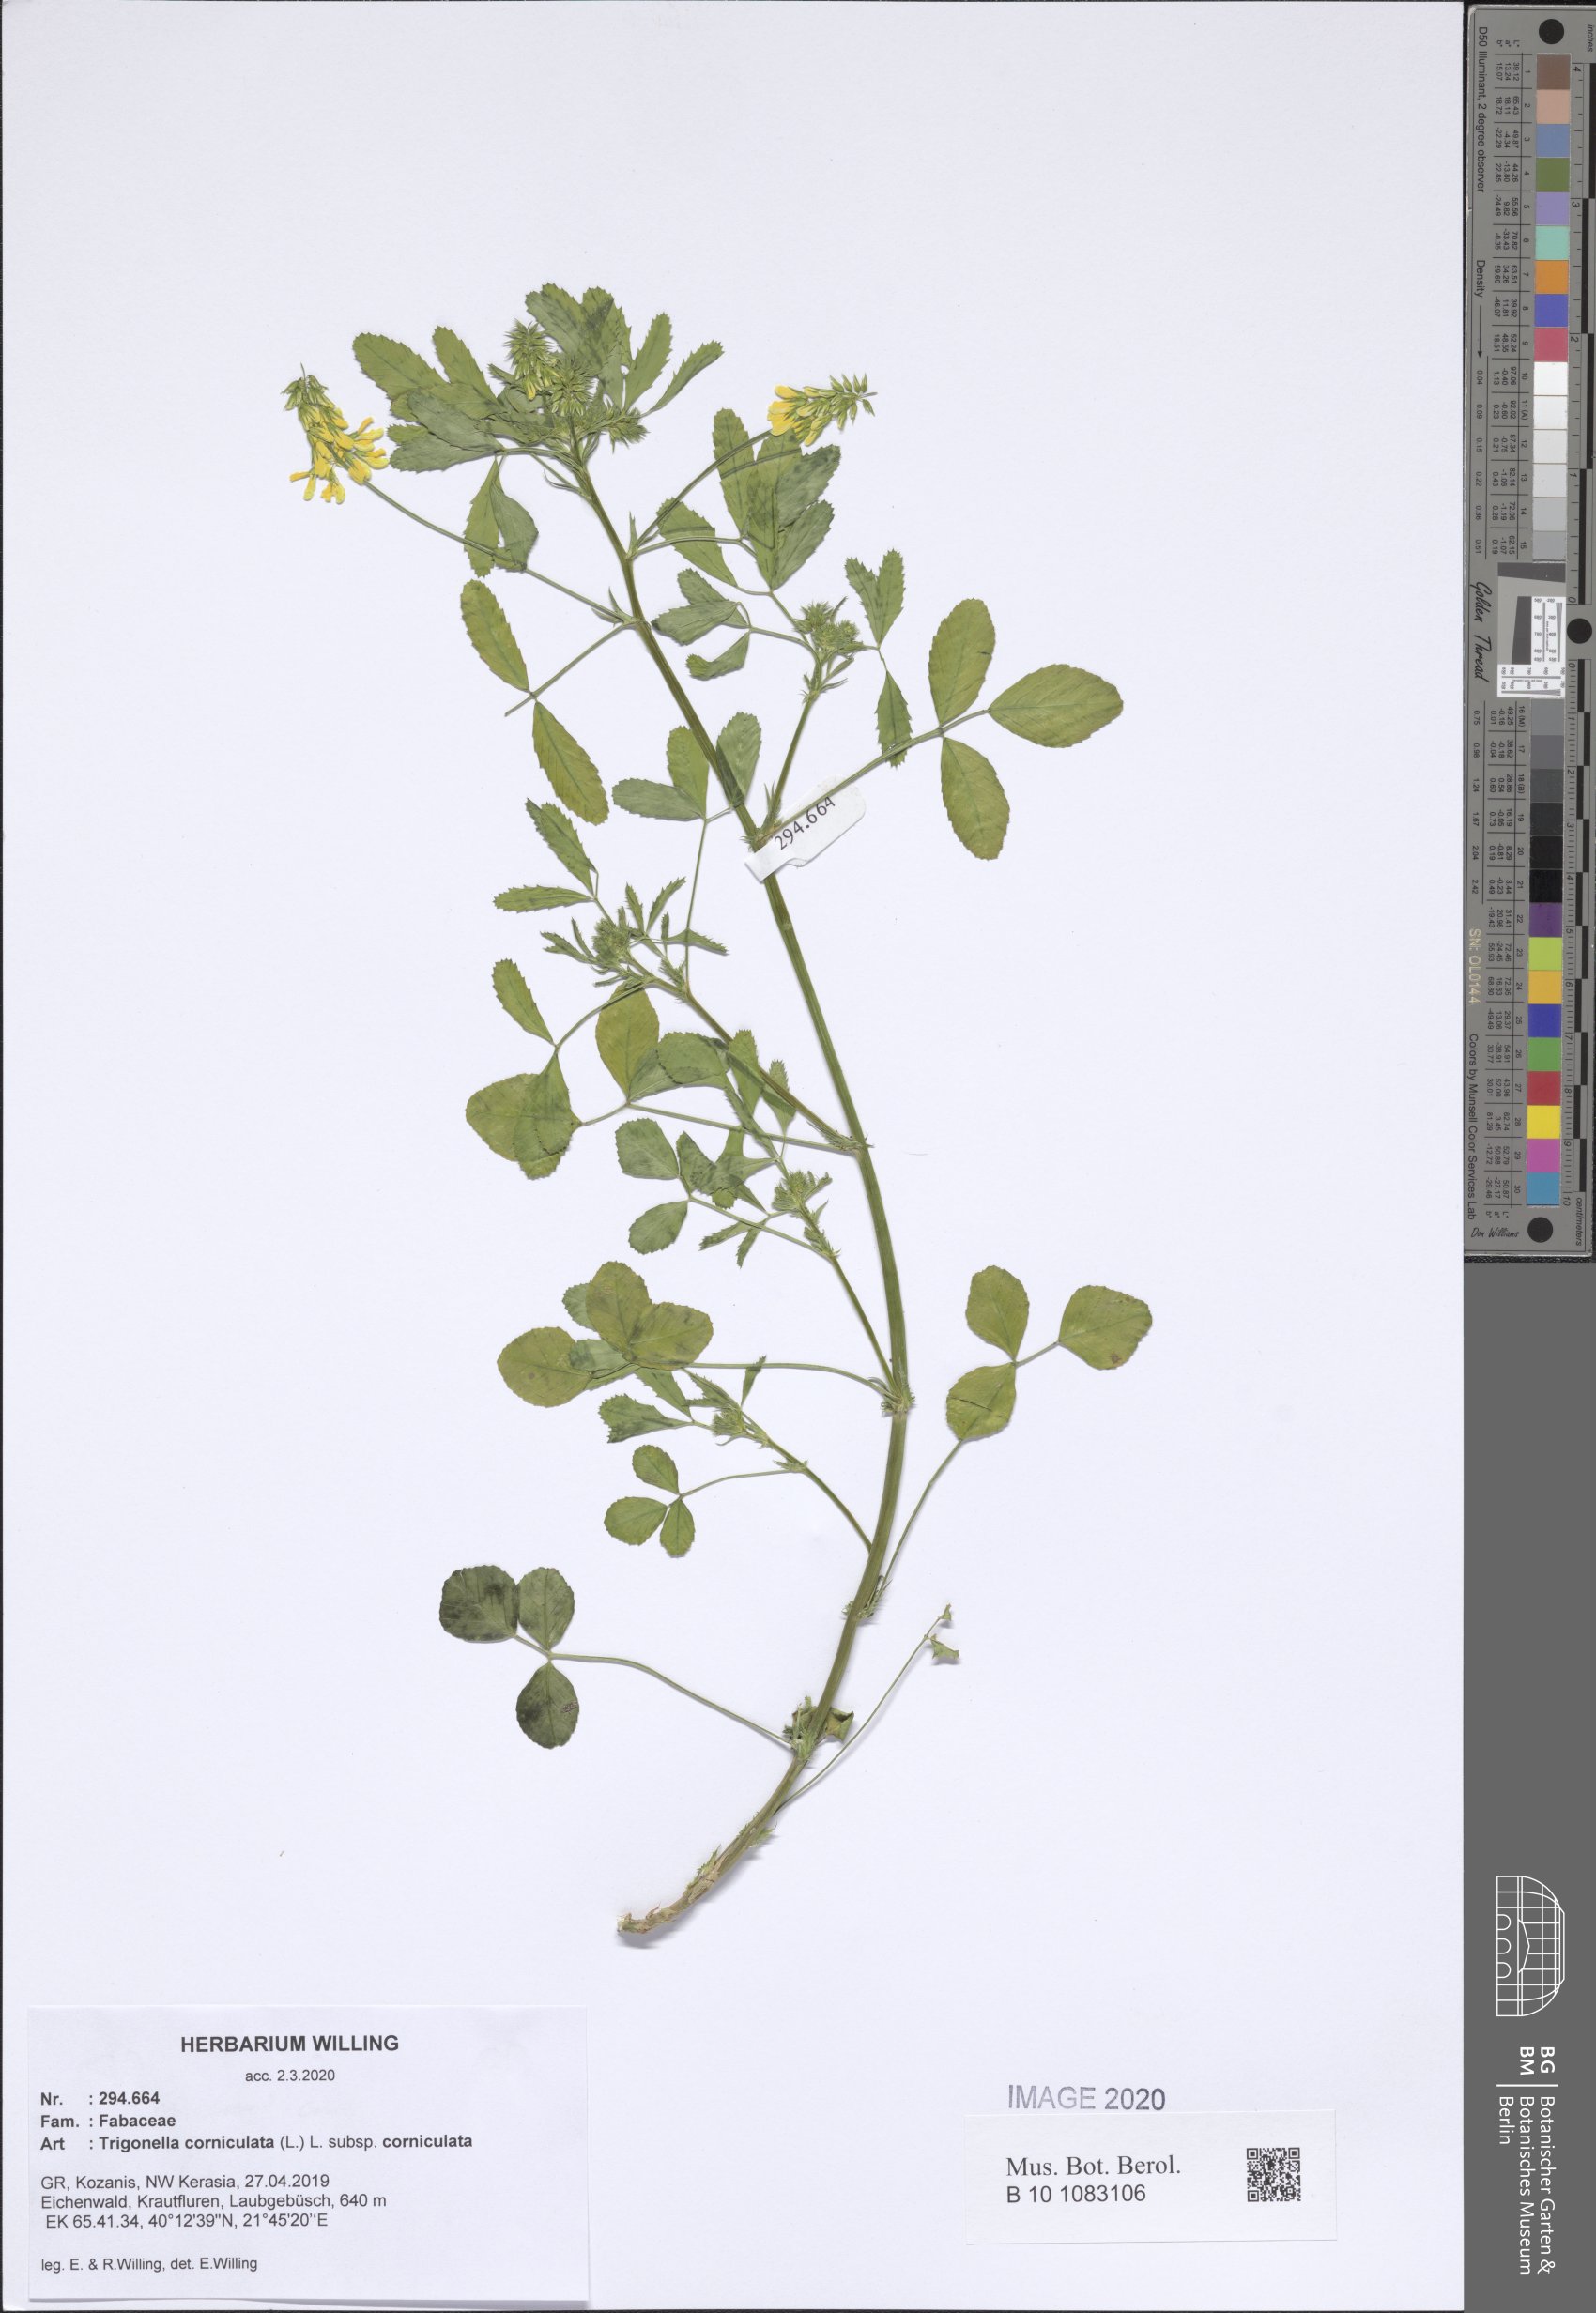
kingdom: Plantae
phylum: Tracheophyta
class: Magnoliopsida
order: Fabales
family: Fabaceae
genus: Trigonella
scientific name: Trigonella corniculata
